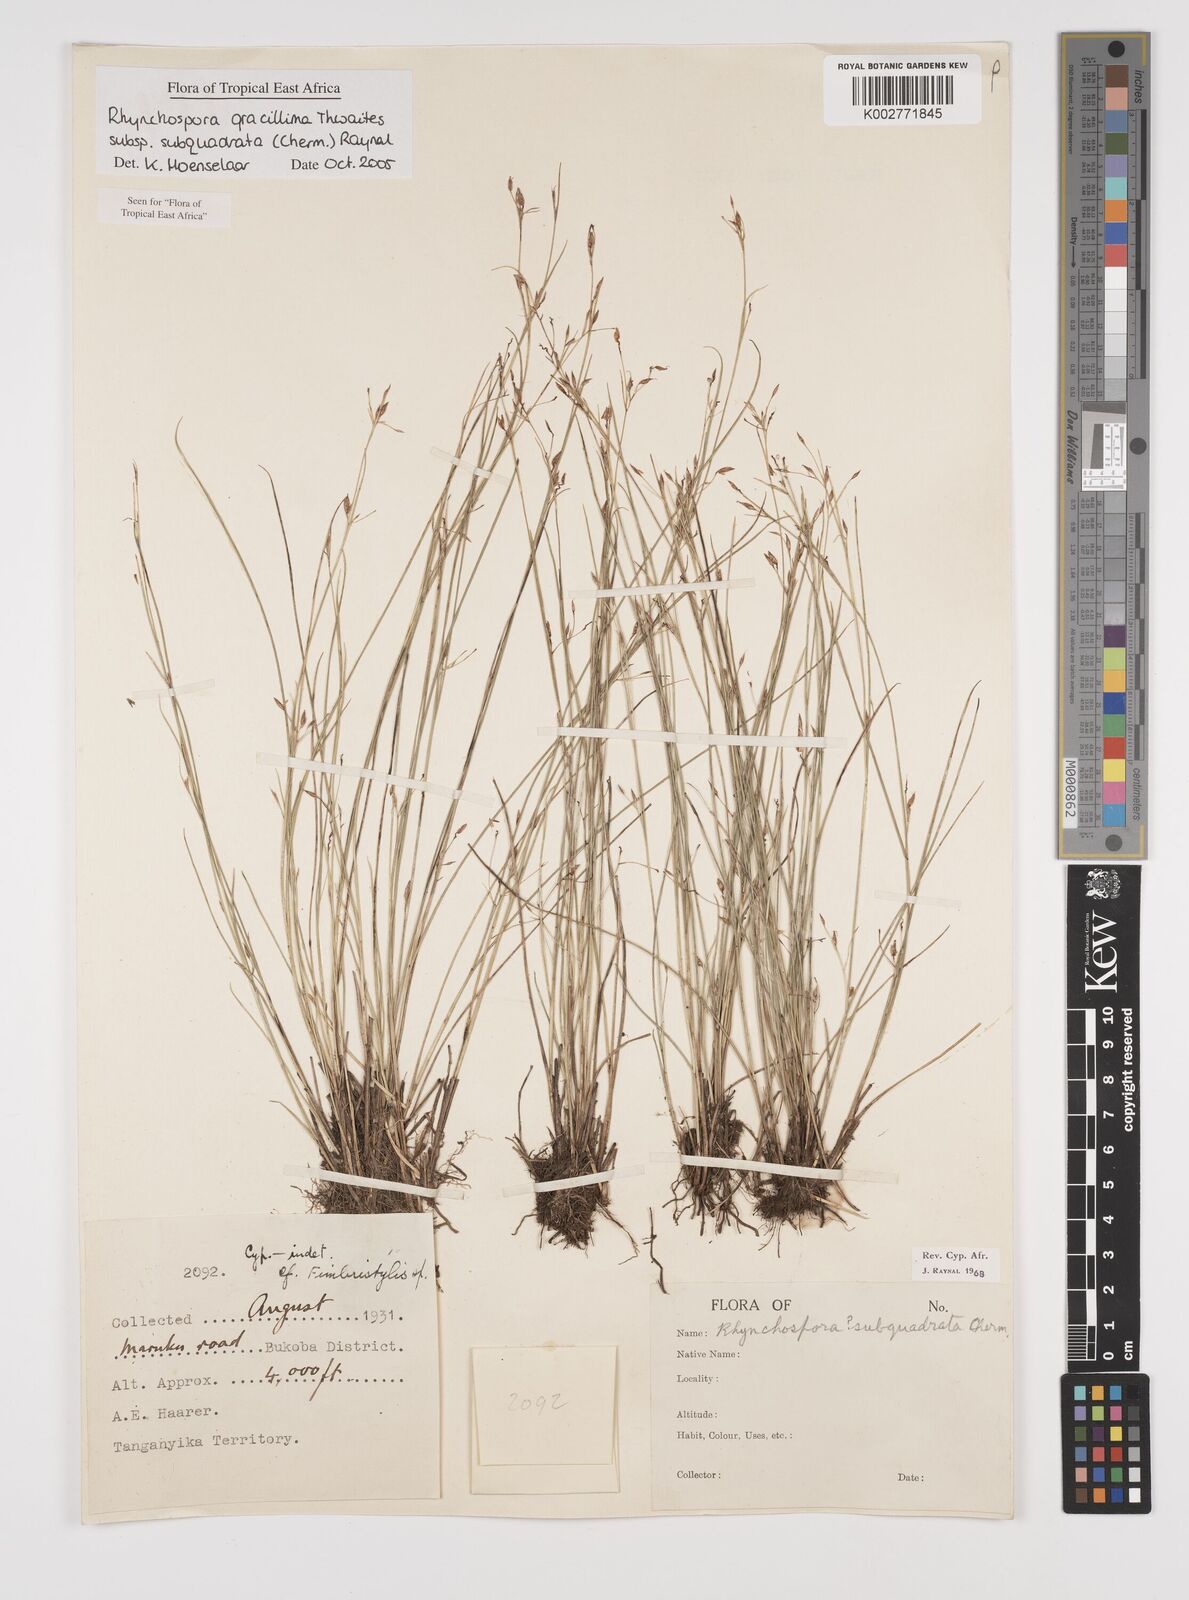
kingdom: Plantae
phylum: Tracheophyta
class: Liliopsida
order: Poales
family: Cyperaceae
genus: Rhynchospora
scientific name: Rhynchospora gracillima
